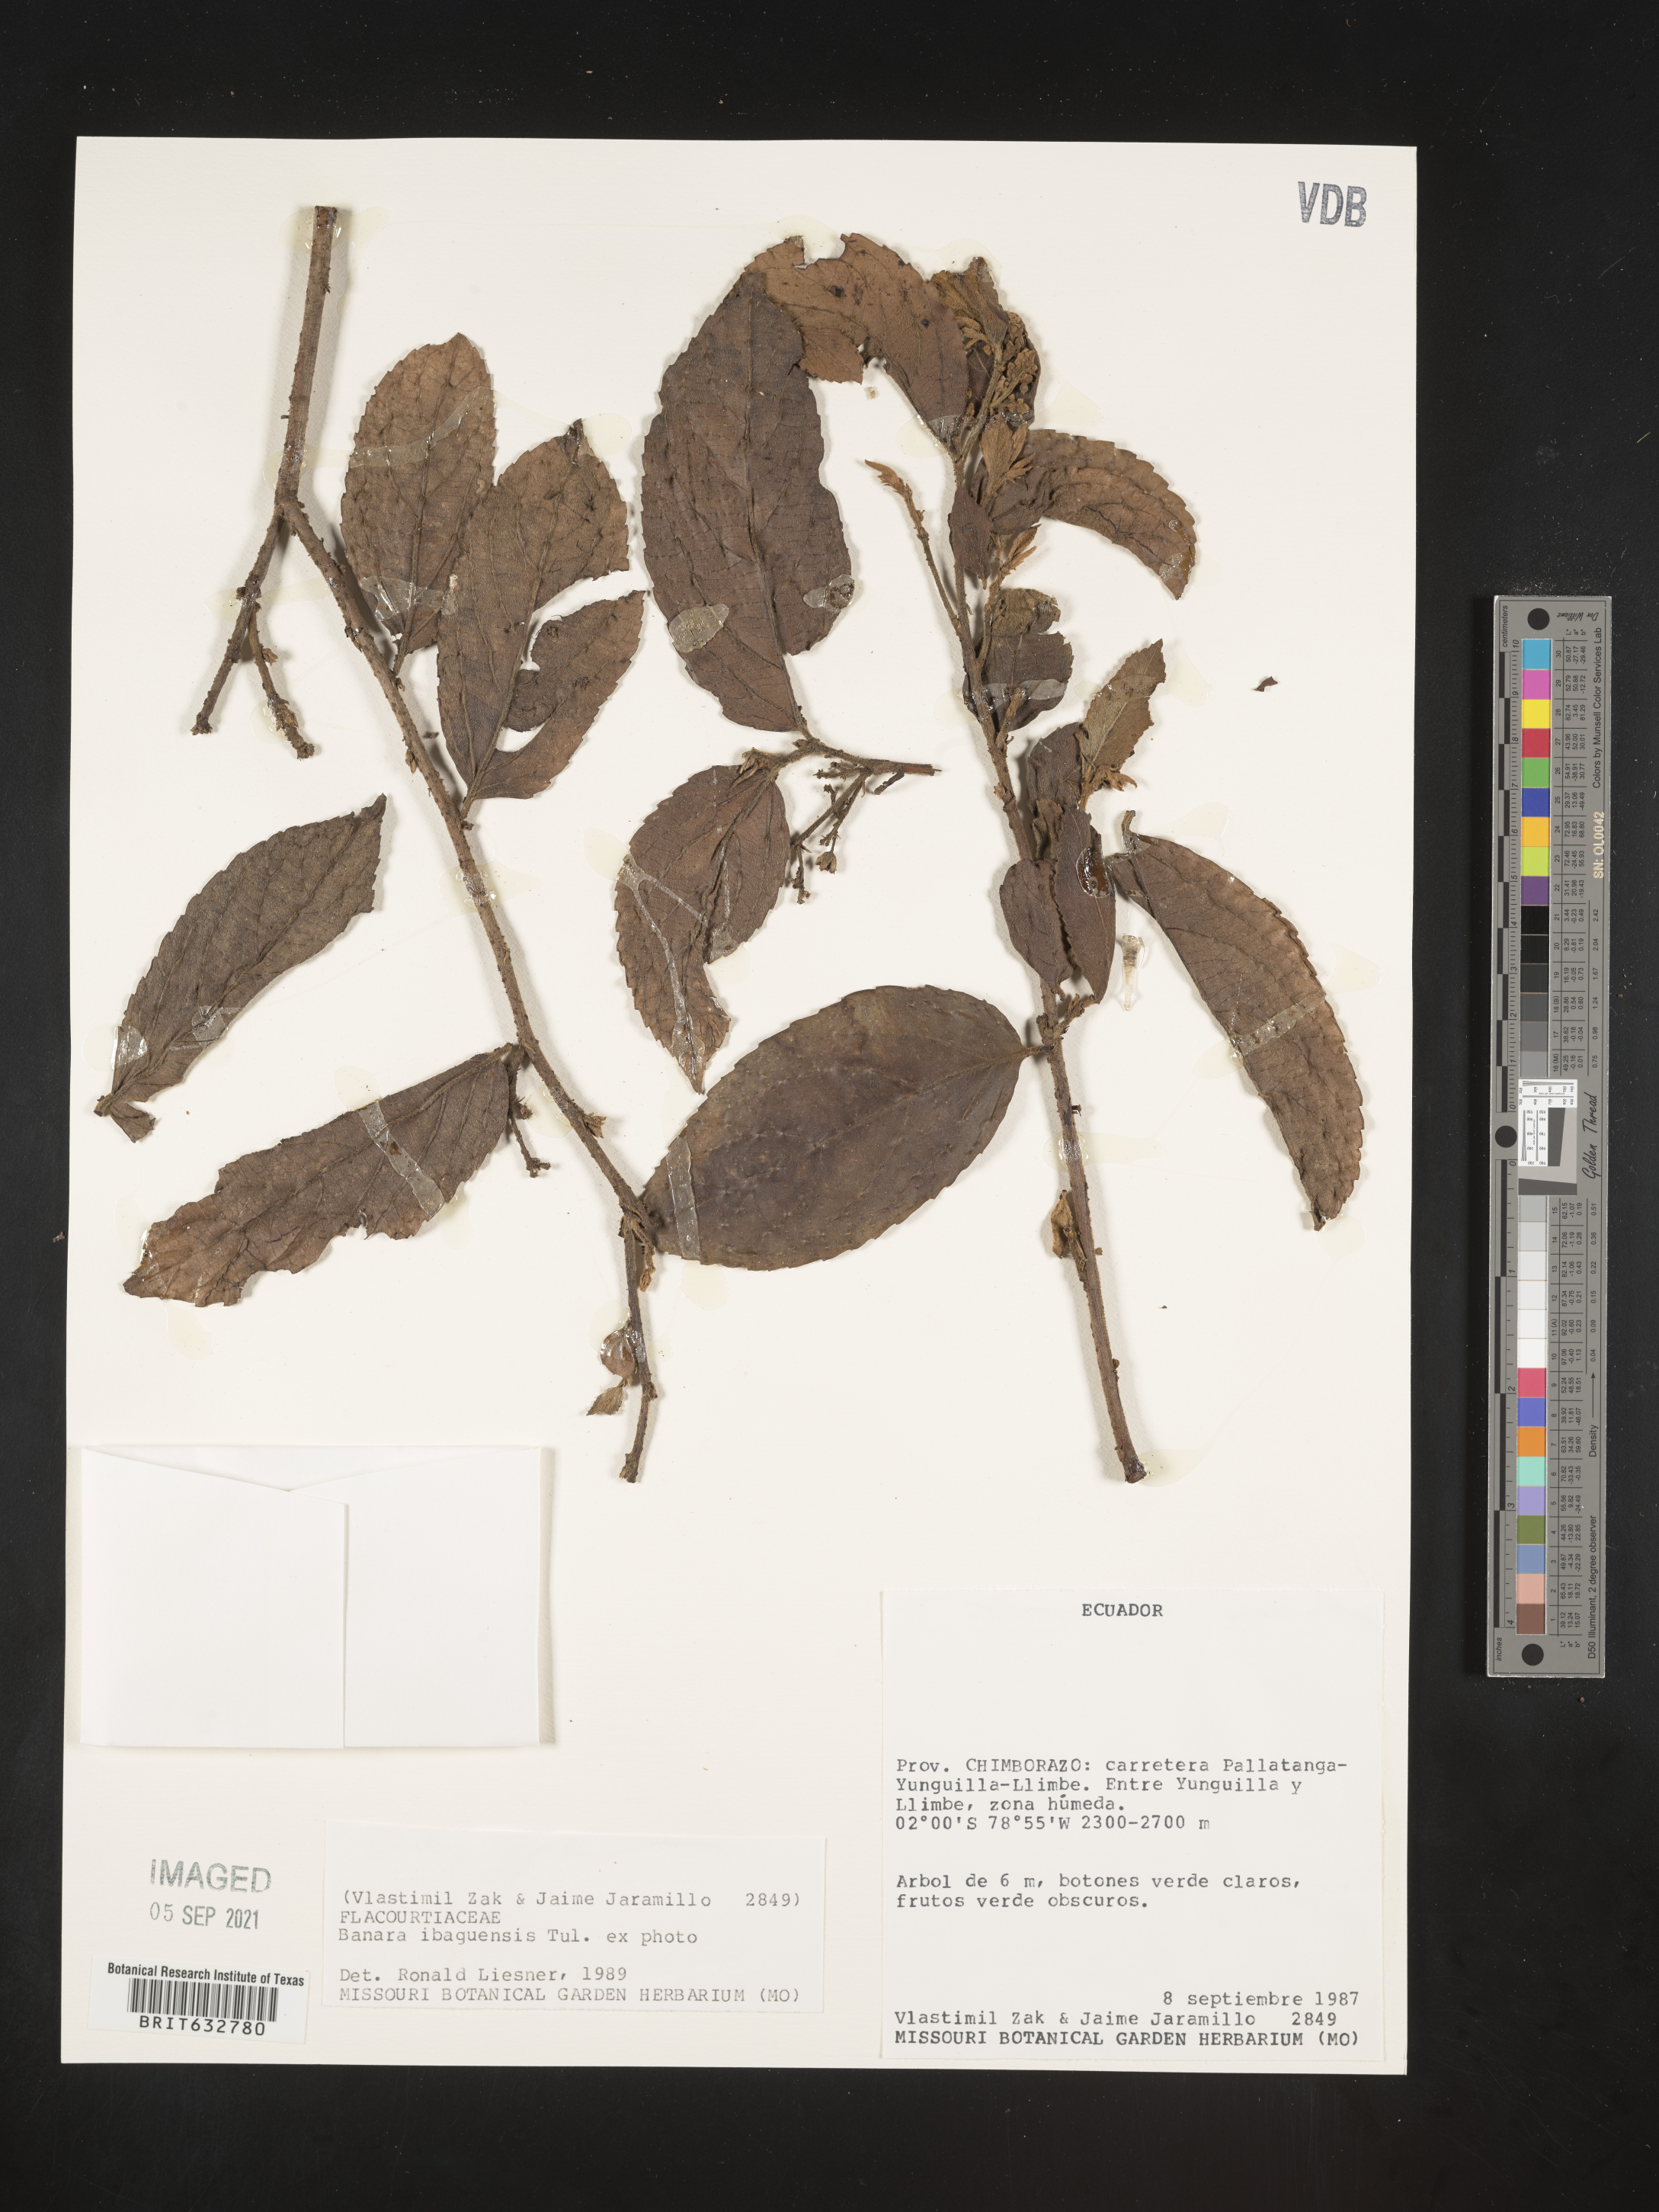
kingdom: Plantae
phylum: Tracheophyta
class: Magnoliopsida
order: Malpighiales
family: Salicaceae
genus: Banara
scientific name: Banara
